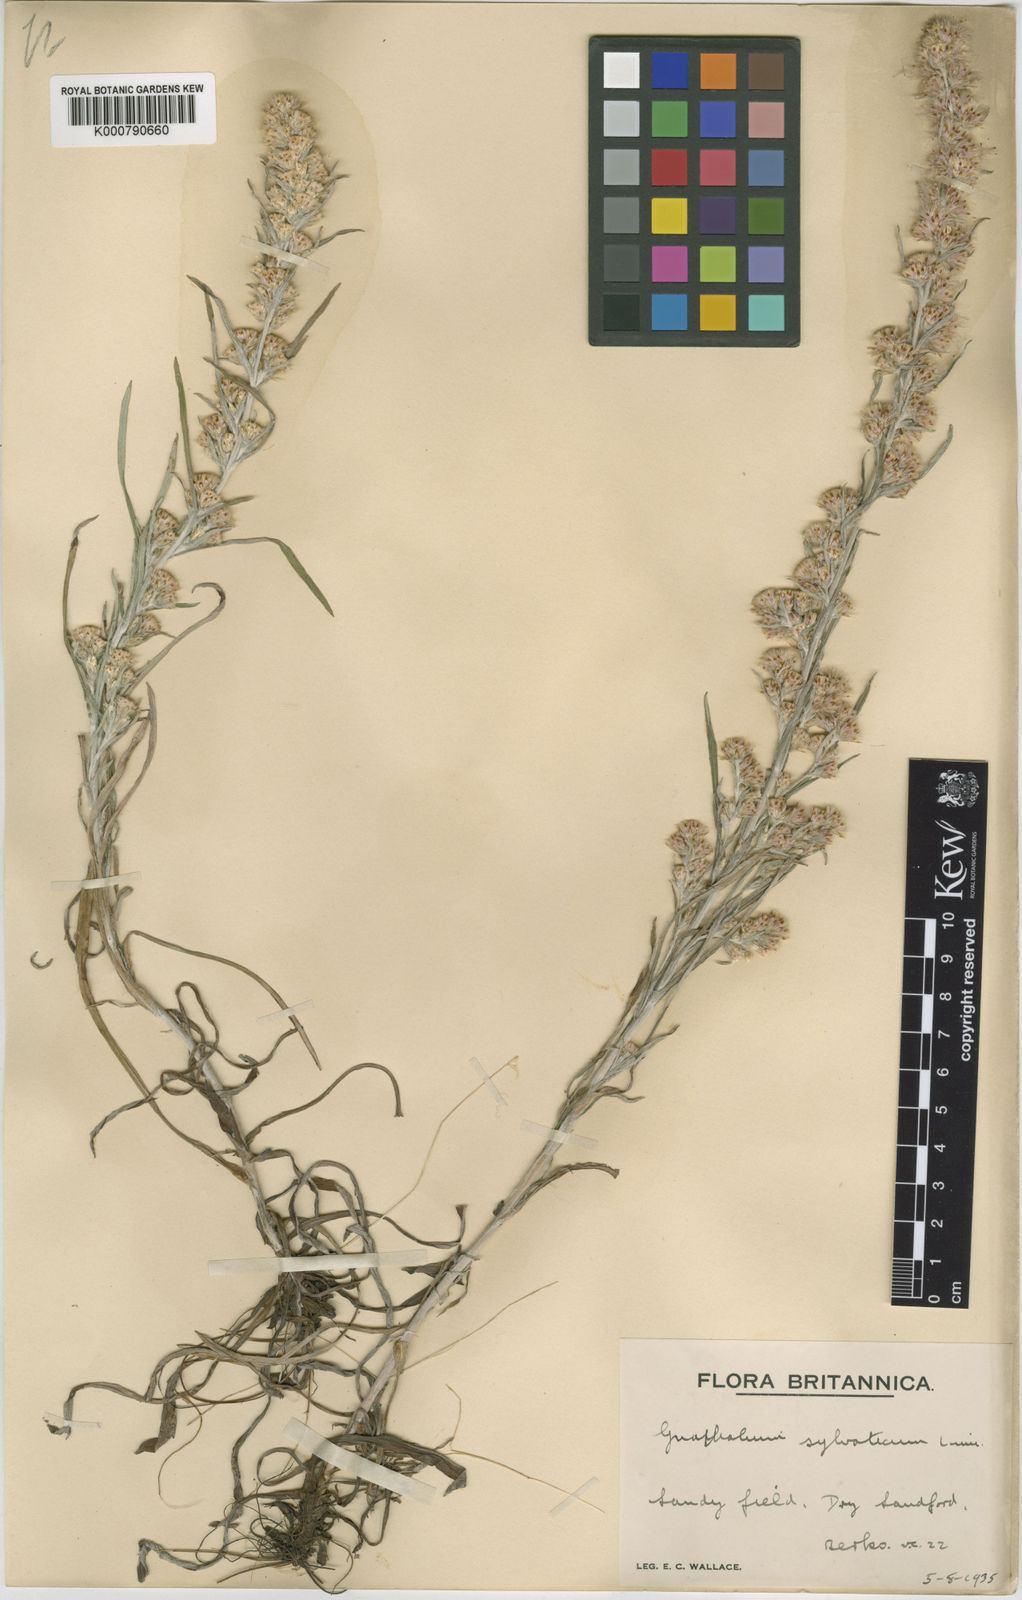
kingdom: Plantae
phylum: Tracheophyta
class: Magnoliopsida
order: Asterales
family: Asteraceae
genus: Omalotheca
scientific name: Omalotheca sylvatica
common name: Heath cudweed
